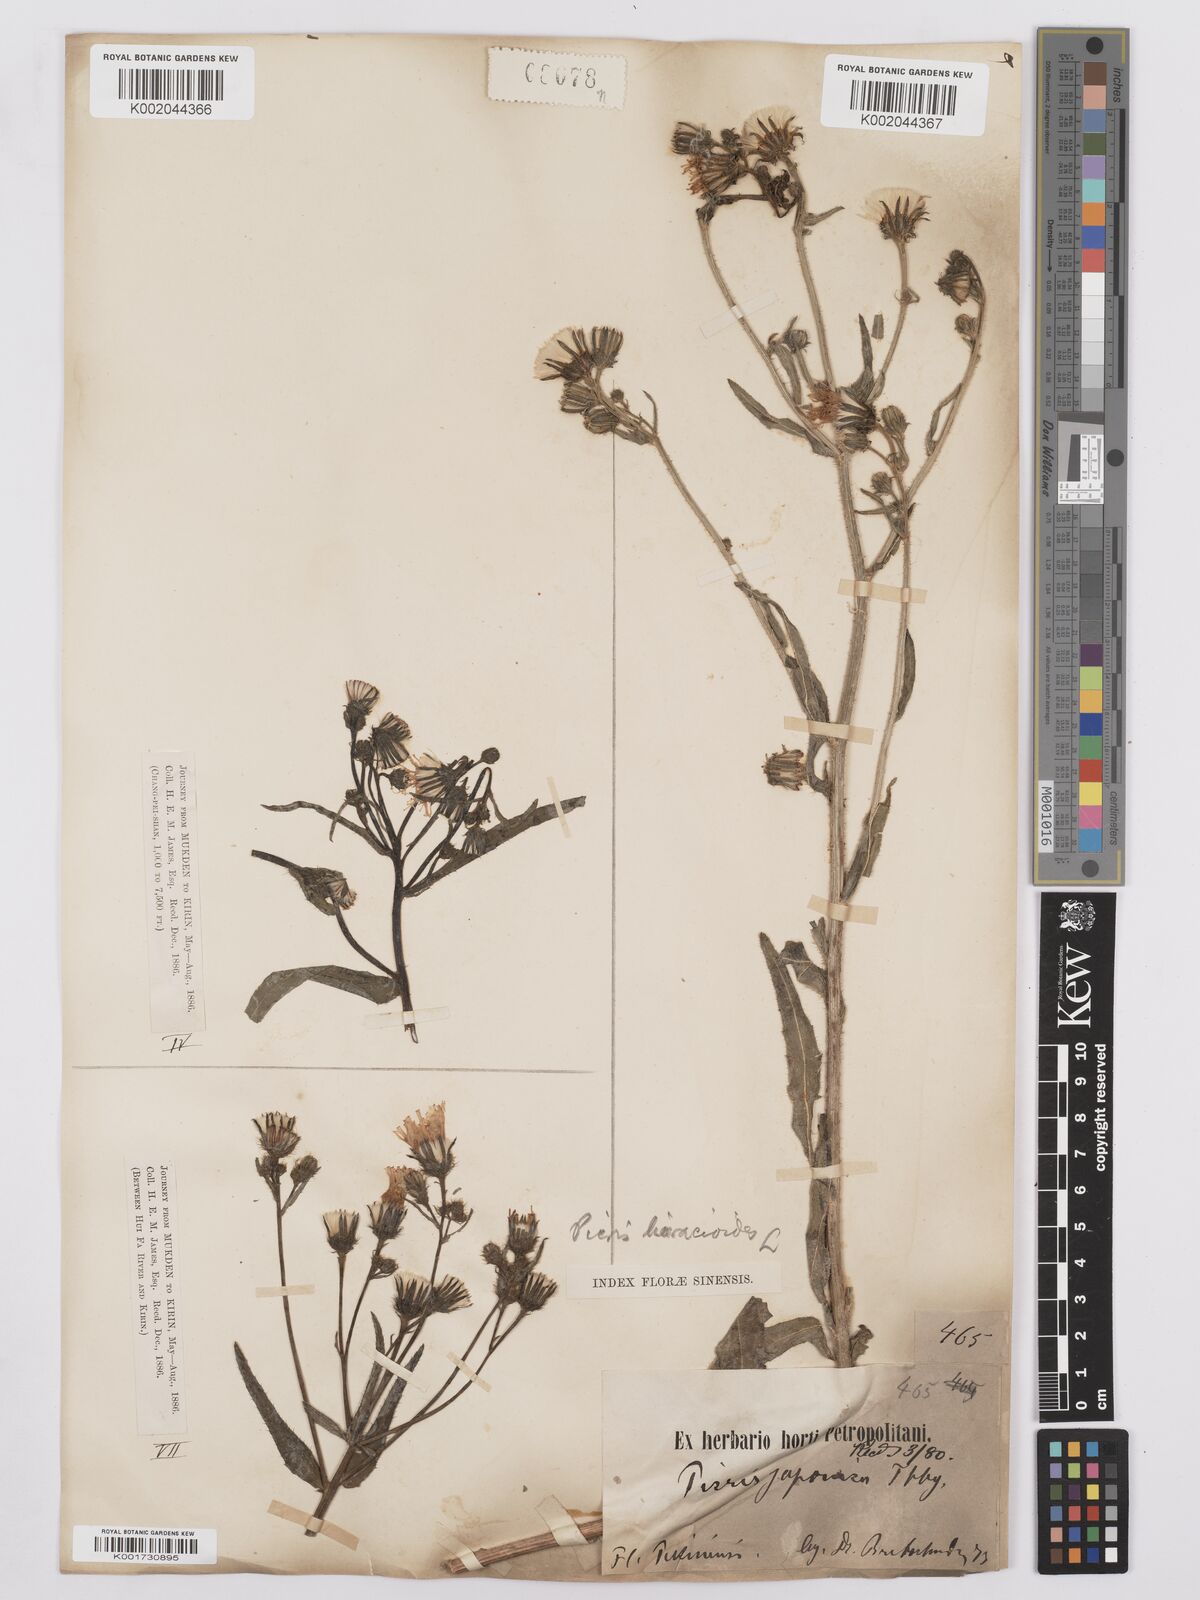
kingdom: Plantae
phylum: Tracheophyta
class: Magnoliopsida
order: Asterales
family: Asteraceae
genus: Picris
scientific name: Picris hieracioides
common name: Hawkweed oxtongue
